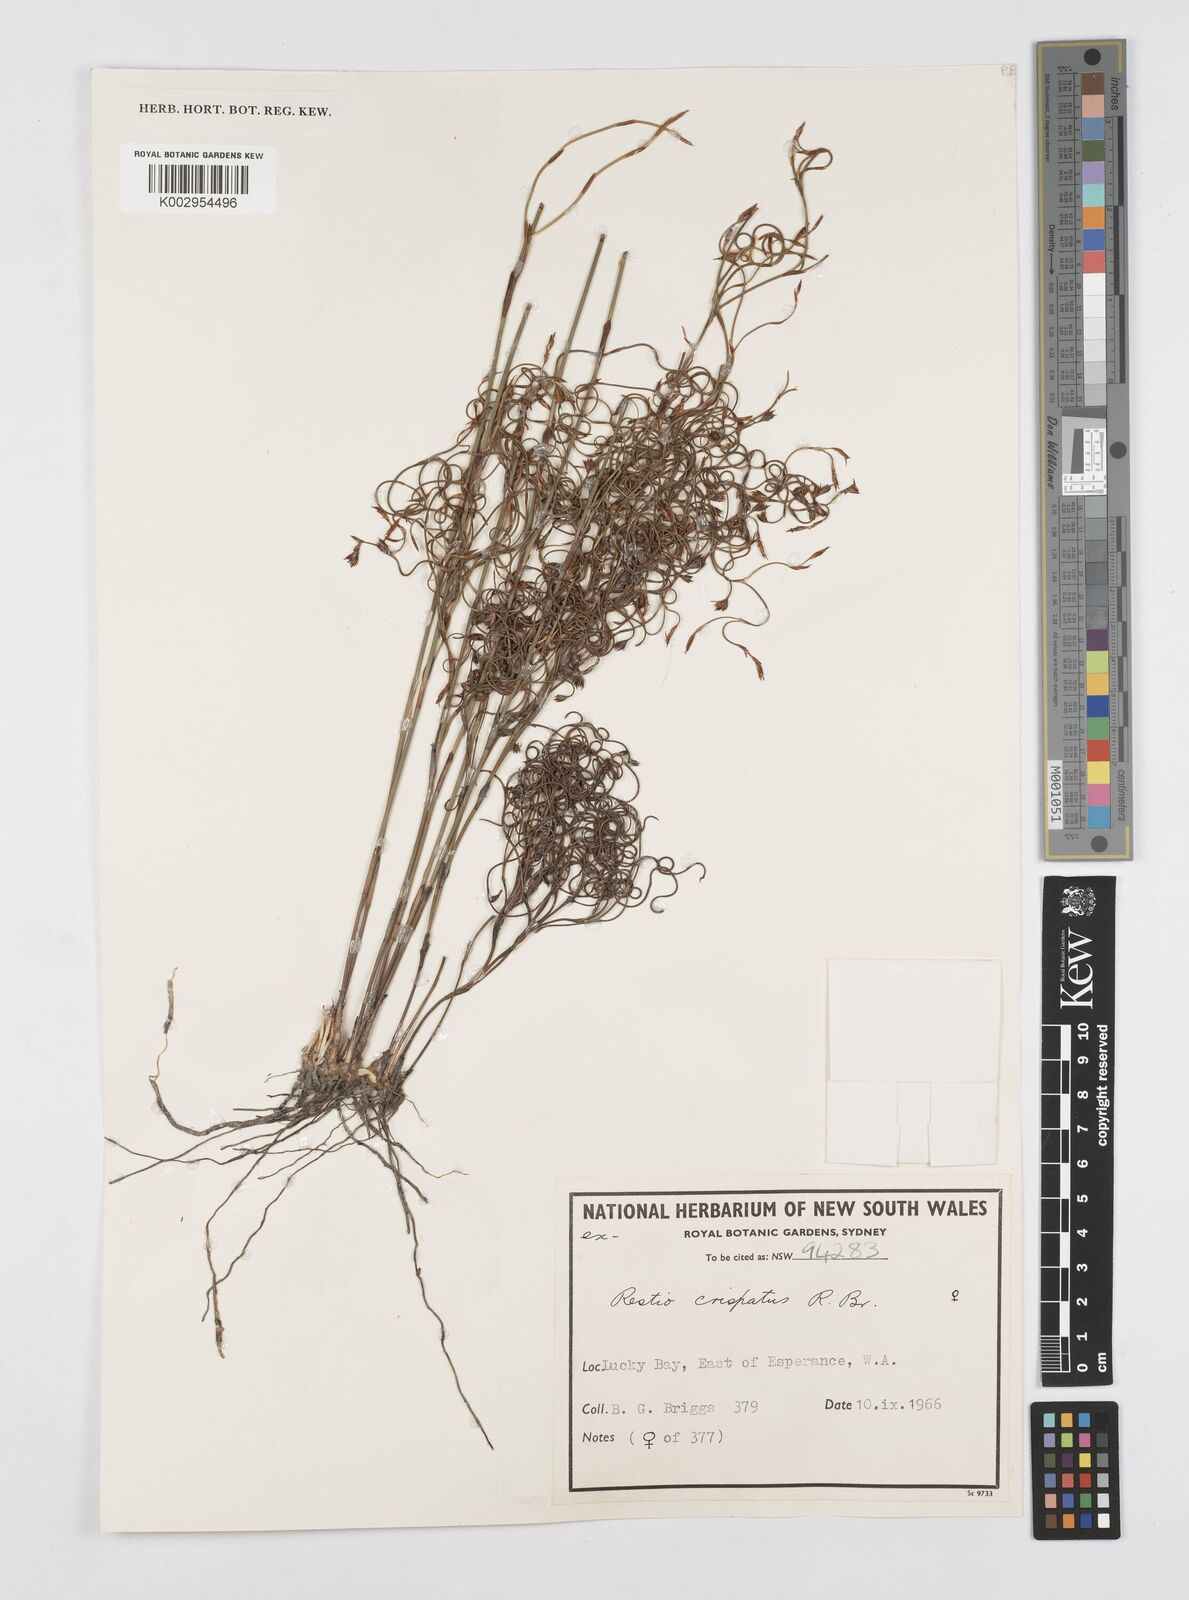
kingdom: Plantae
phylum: Tracheophyta
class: Liliopsida
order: Poales
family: Restionaceae
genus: Chordifex
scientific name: Chordifex crispatus
